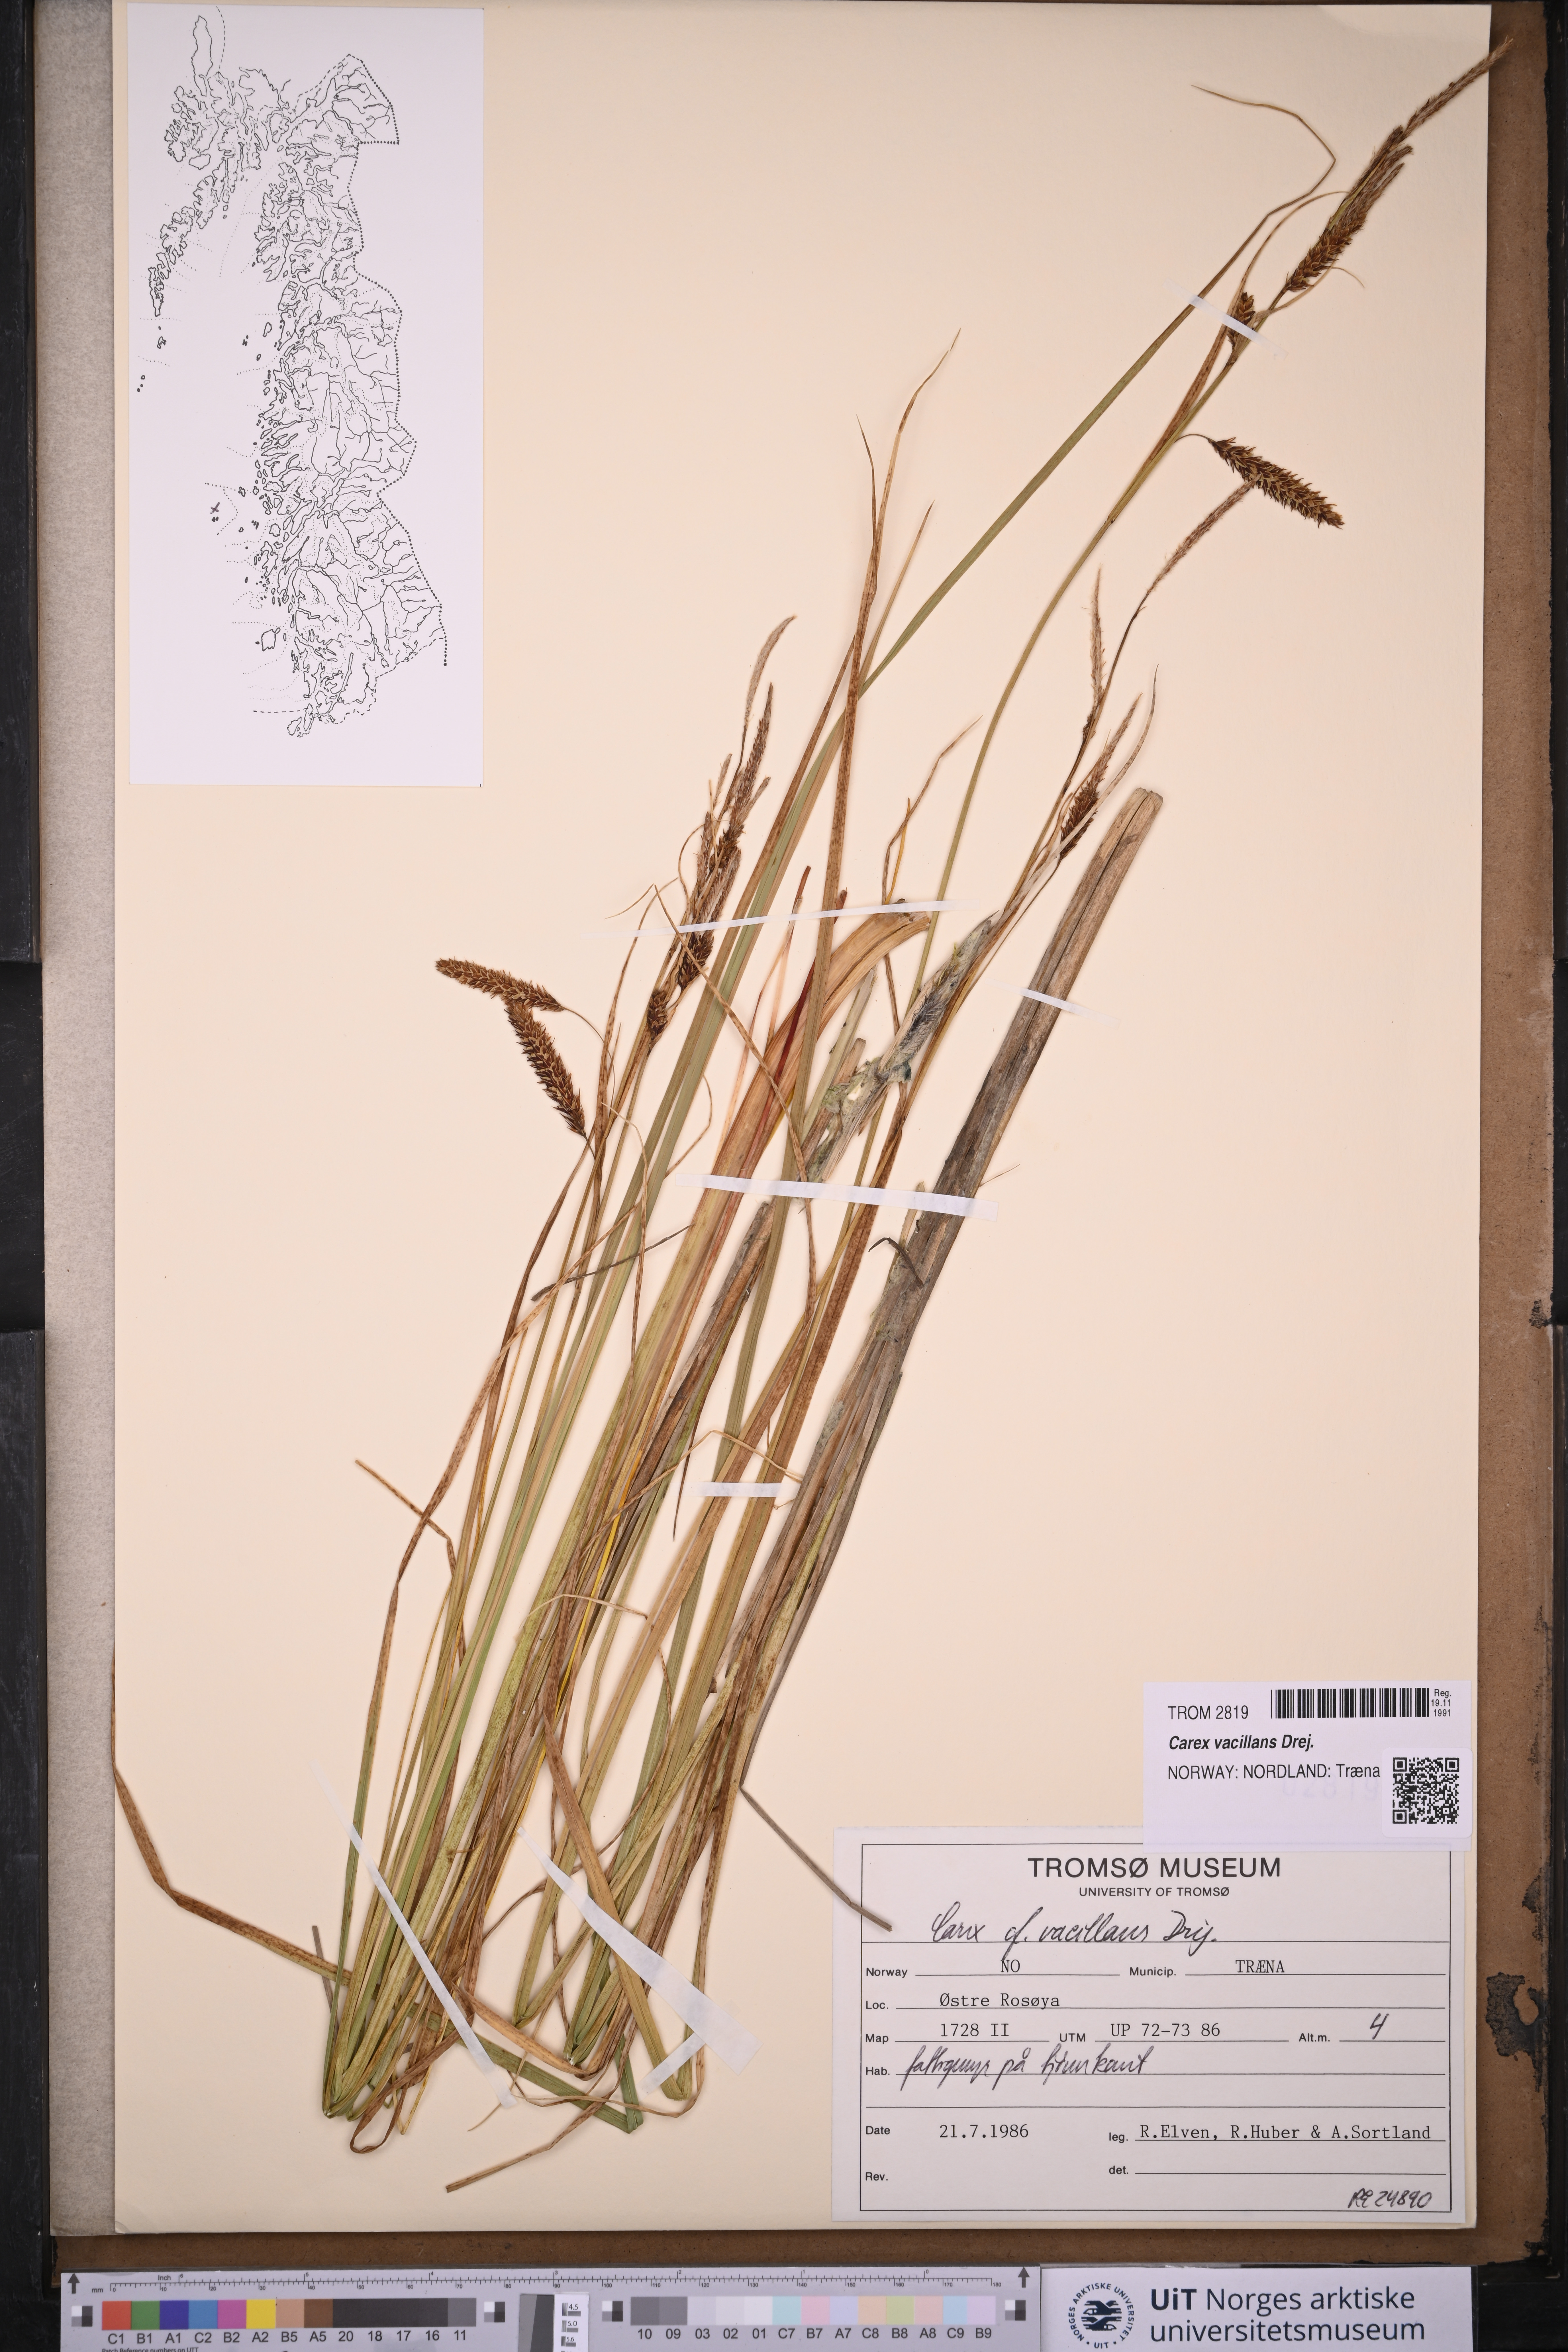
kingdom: Plantae
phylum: Tracheophyta
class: Liliopsida
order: Poales
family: Cyperaceae
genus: Carex
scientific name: Carex vacillans
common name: Sedge
